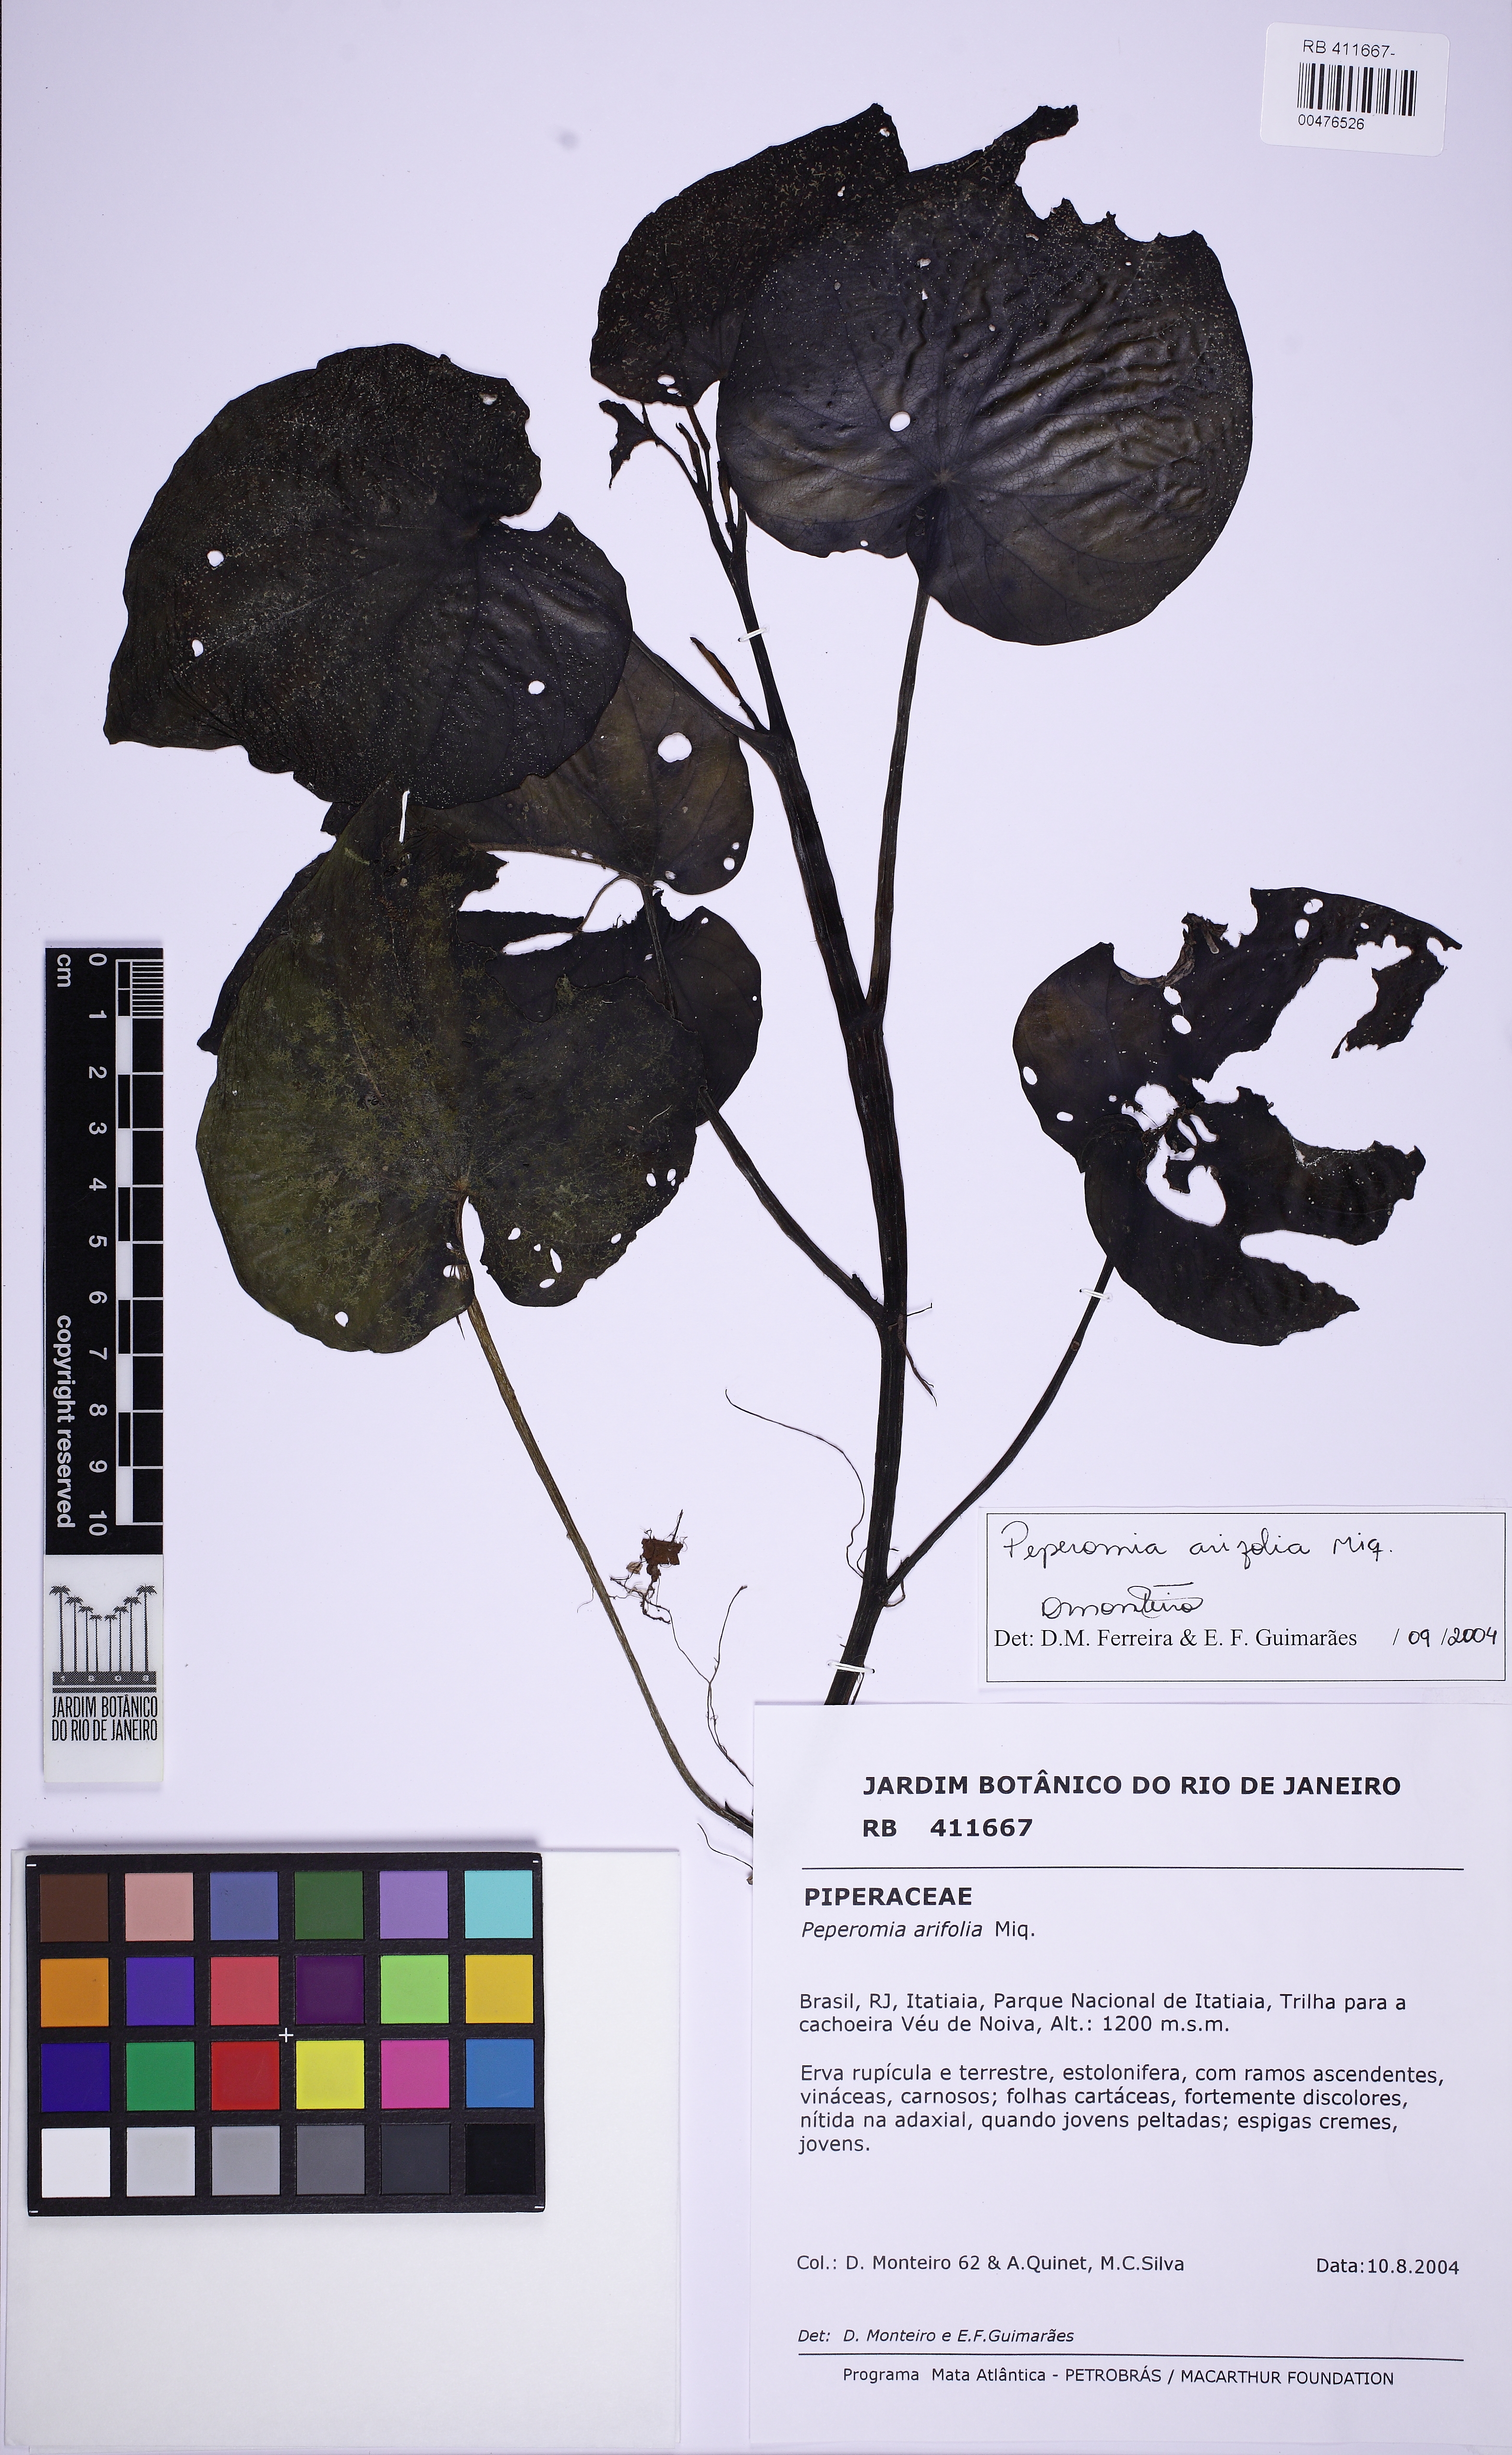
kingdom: Plantae
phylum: Tracheophyta
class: Magnoliopsida
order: Piperales
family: Piperaceae
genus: Peperomia
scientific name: Peperomia arifolia
